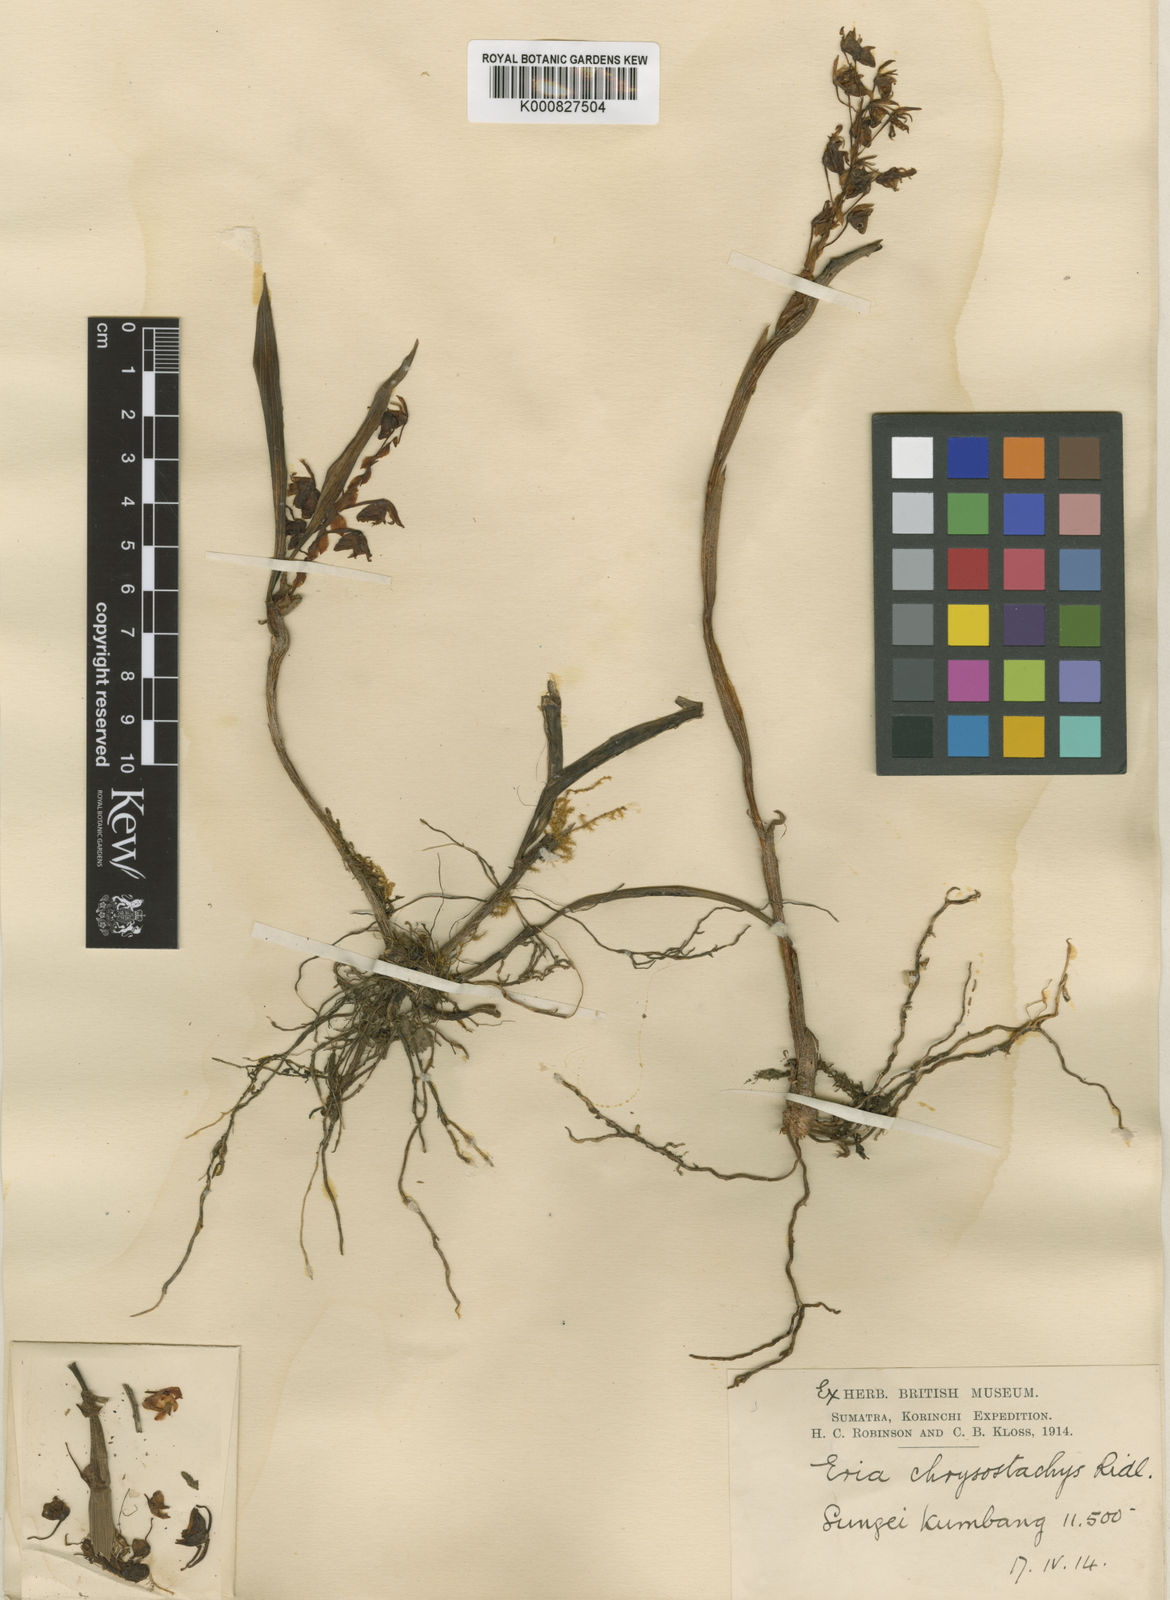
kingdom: Plantae
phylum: Tracheophyta
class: Liliopsida
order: Asparagales
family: Orchidaceae
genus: Pinalia
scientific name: Pinalia merapiensis
